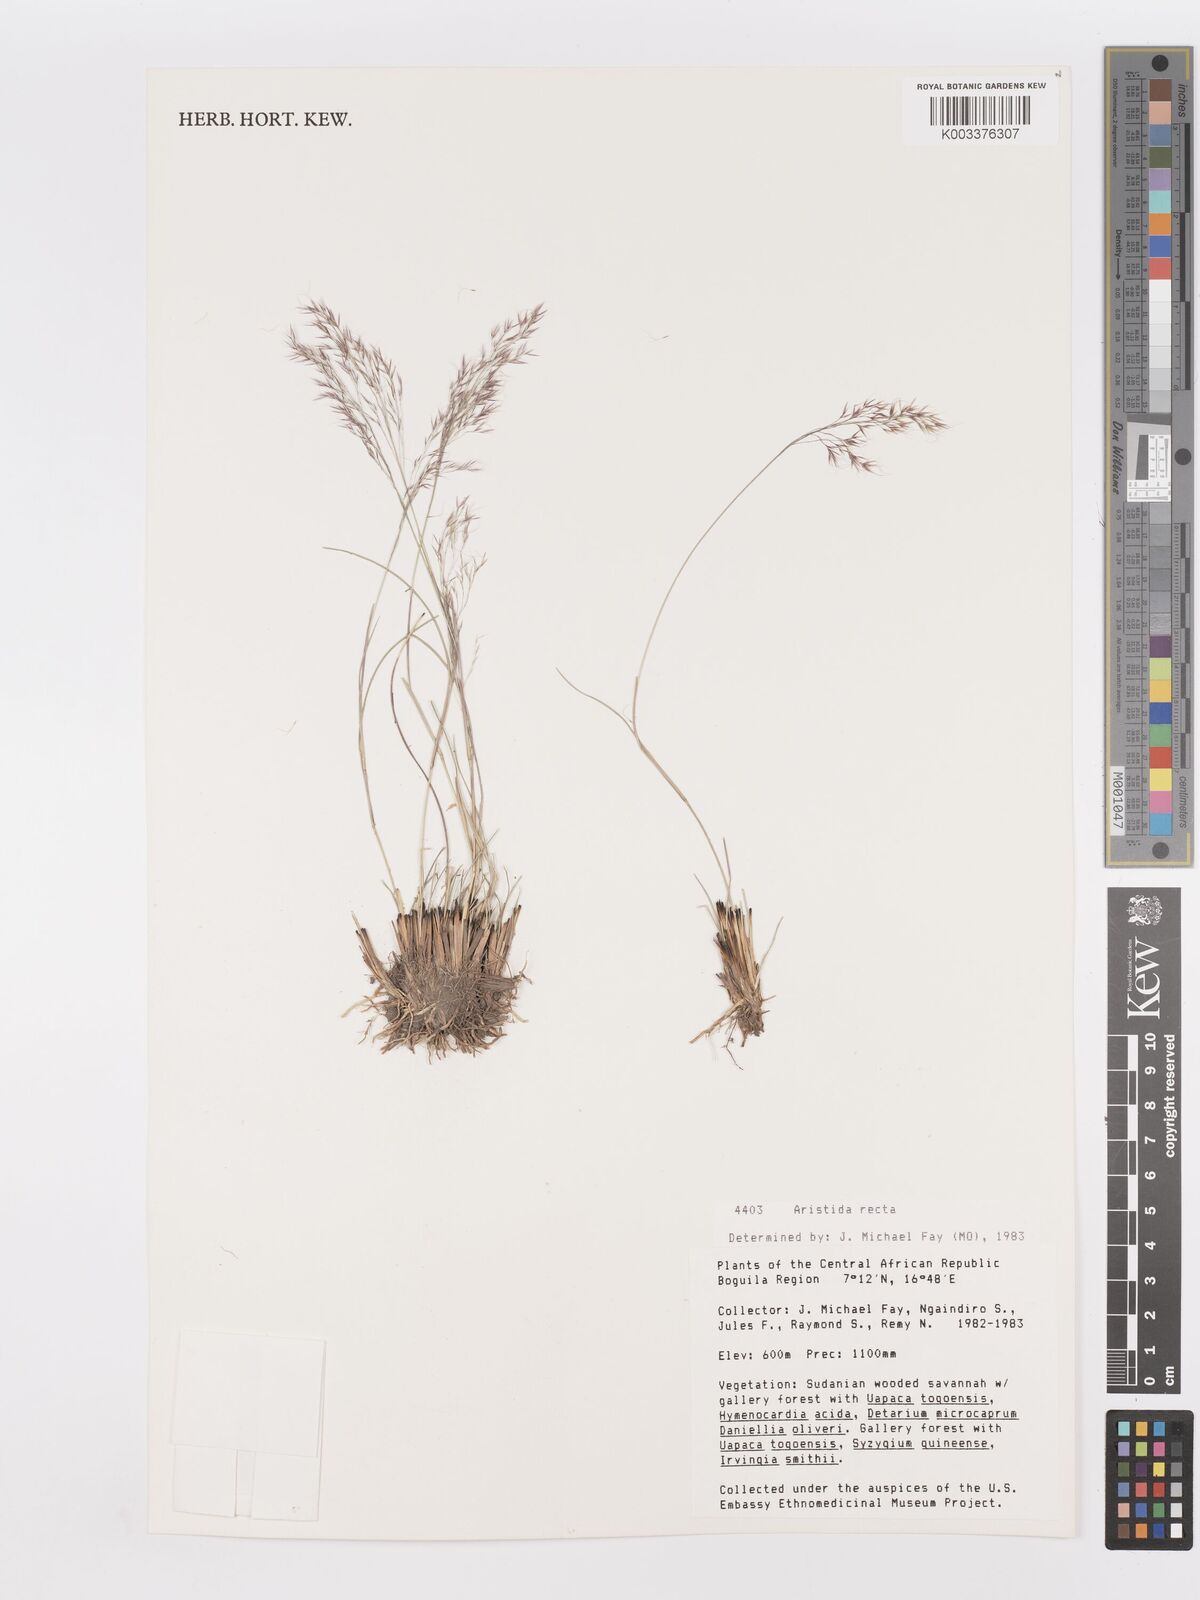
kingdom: Plantae
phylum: Tracheophyta
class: Liliopsida
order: Poales
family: Poaceae
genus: Aristida
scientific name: Aristida recta
